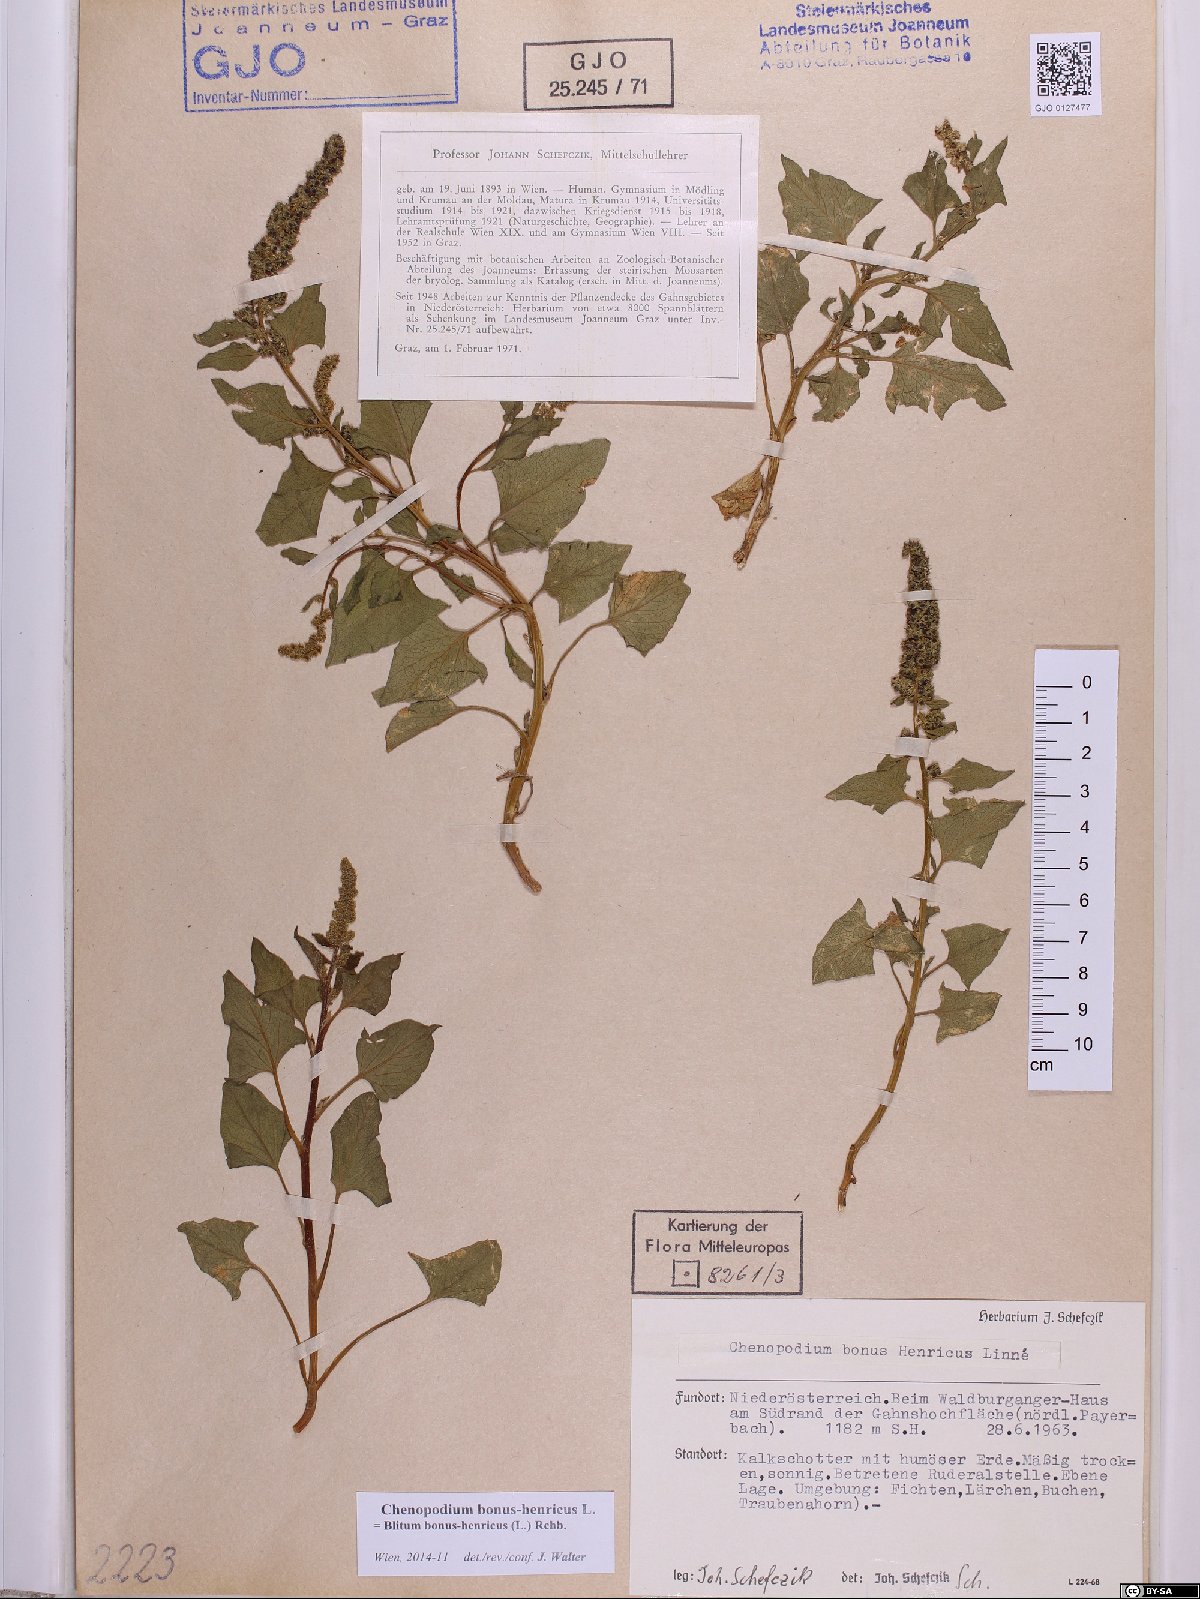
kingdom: Plantae
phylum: Tracheophyta
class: Magnoliopsida
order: Caryophyllales
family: Amaranthaceae
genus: Blitum
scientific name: Blitum bonus-henricus
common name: Good king henry
